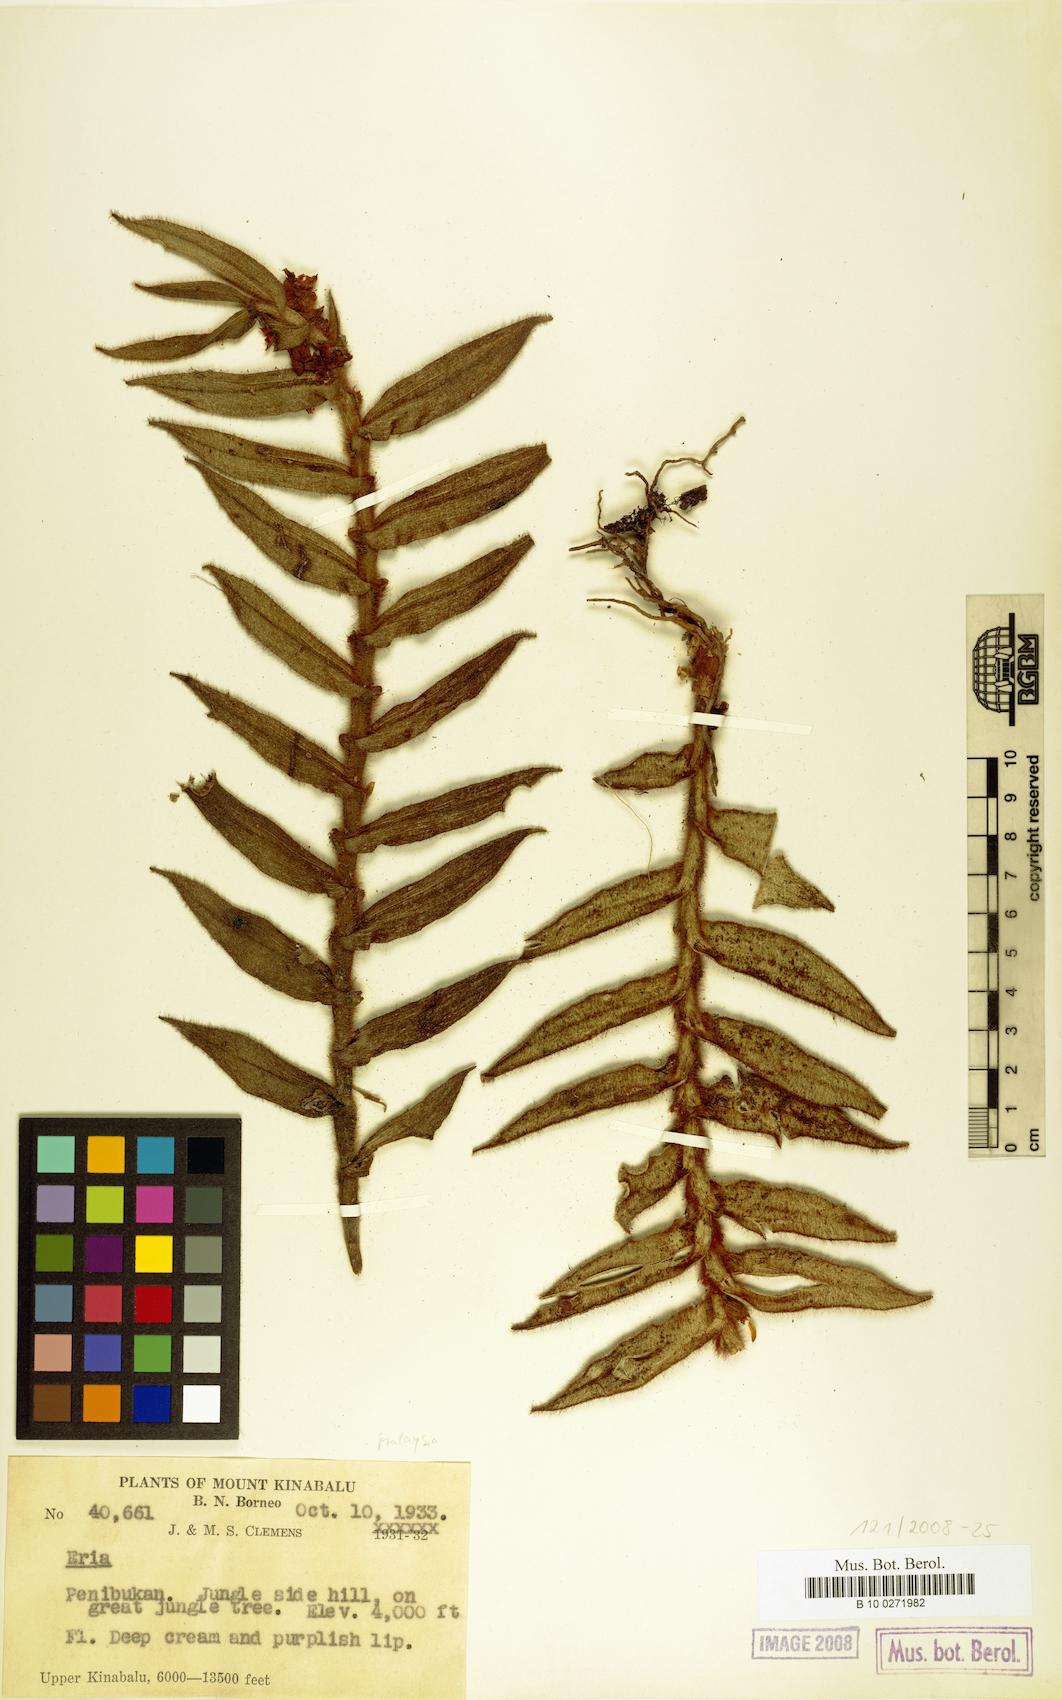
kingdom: Plantae
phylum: Tracheophyta
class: Liliopsida
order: Asparagales
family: Orchidaceae
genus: Eria
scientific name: Eria
